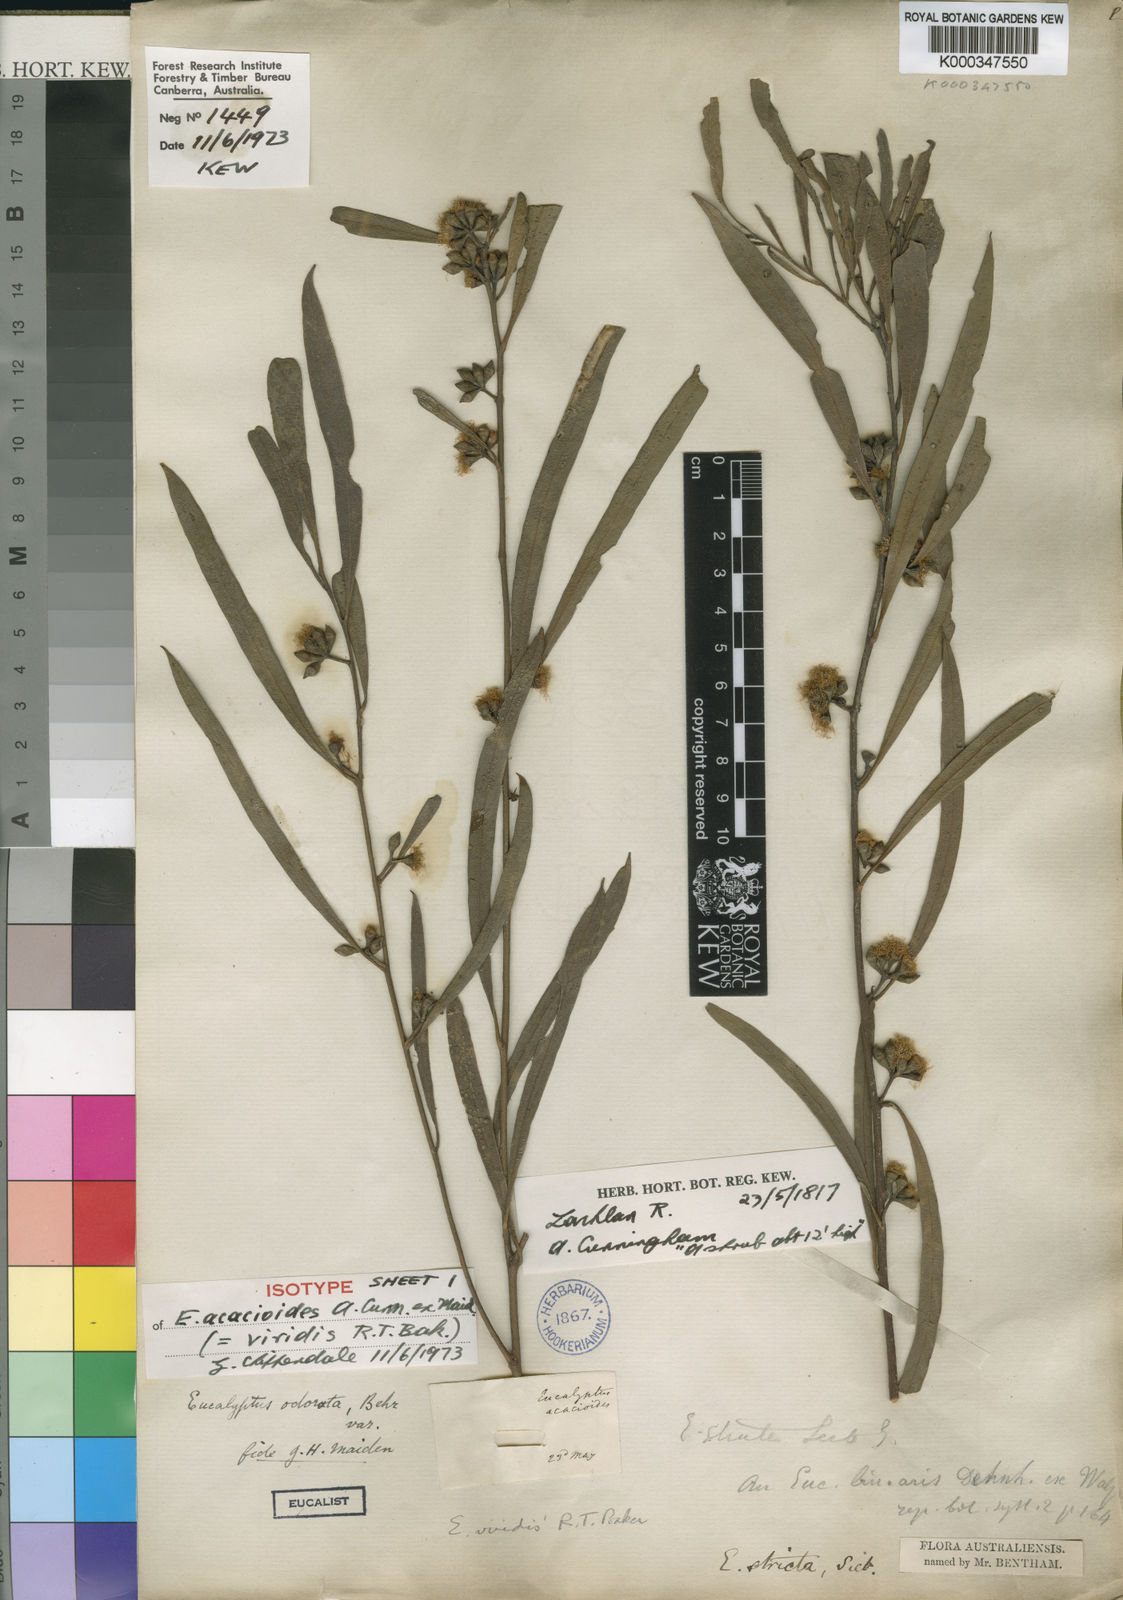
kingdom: Plantae
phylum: Tracheophyta
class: Magnoliopsida
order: Myrtales
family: Myrtaceae
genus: Eucalyptus
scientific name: Eucalyptus viridis
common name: Green mallee
